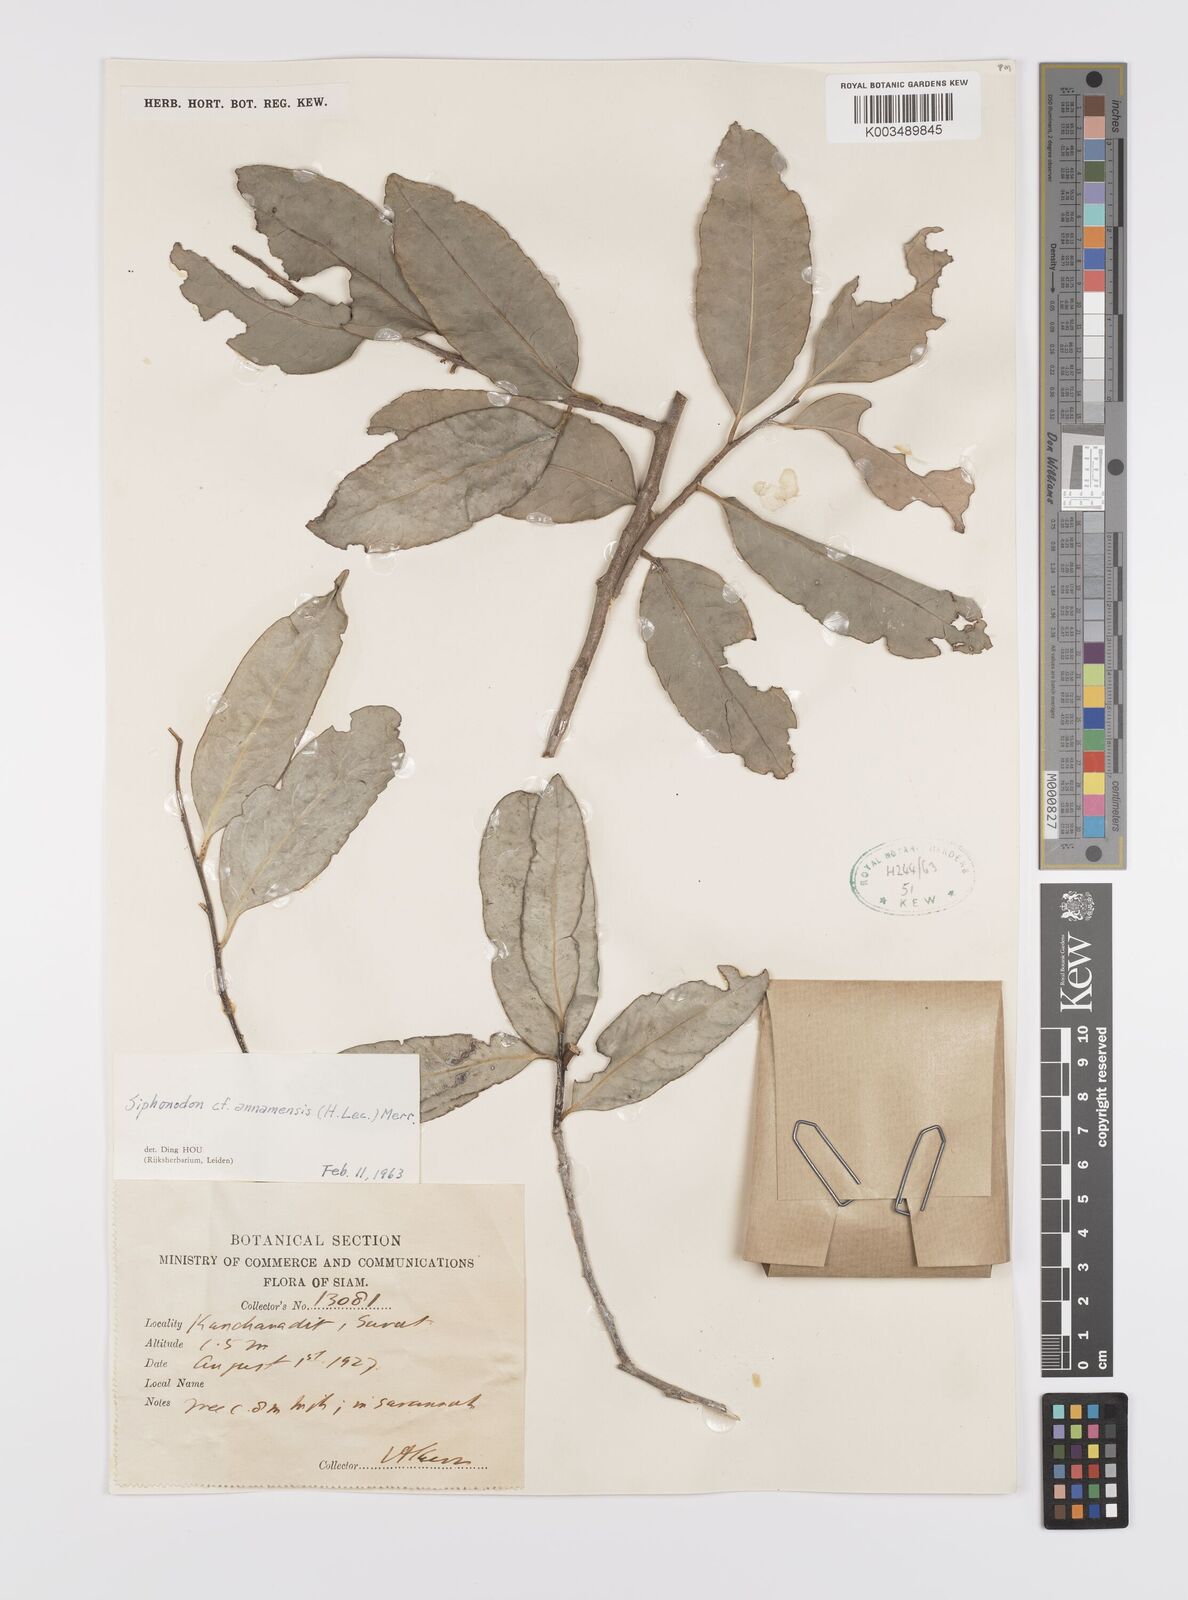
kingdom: Plantae
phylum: Tracheophyta
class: Magnoliopsida
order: Celastrales
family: Celastraceae
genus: Siphonodon
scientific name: Siphonodon celastrineus
